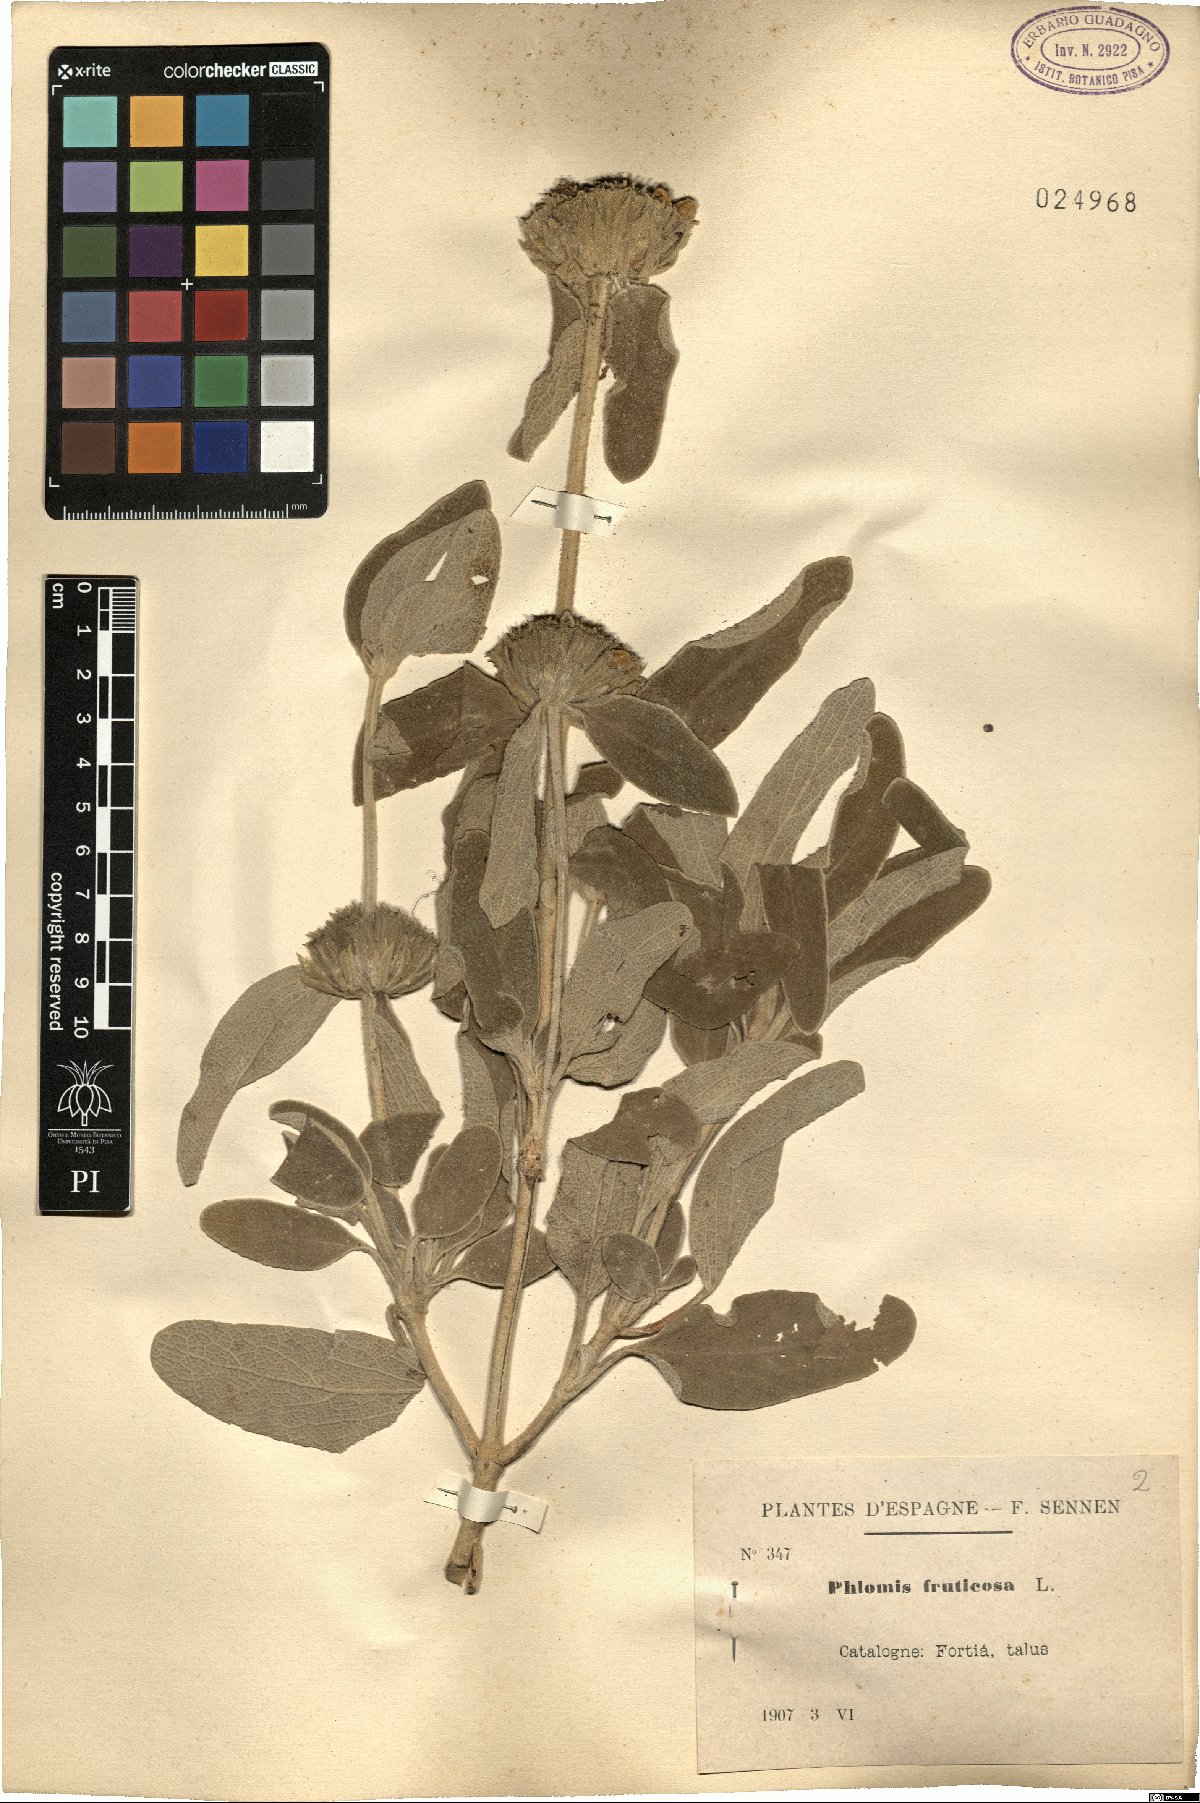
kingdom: Plantae
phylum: Tracheophyta
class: Magnoliopsida
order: Lamiales
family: Lamiaceae
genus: Phlomis
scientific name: Phlomis fruticosa
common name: Jerusalem sage
